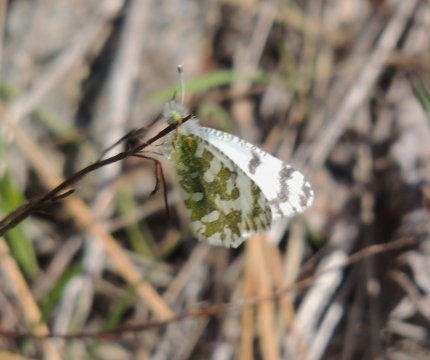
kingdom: Animalia
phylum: Arthropoda
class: Insecta
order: Lepidoptera
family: Pieridae
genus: Euchloe
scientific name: Euchloe lotta
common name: Desert Marble
